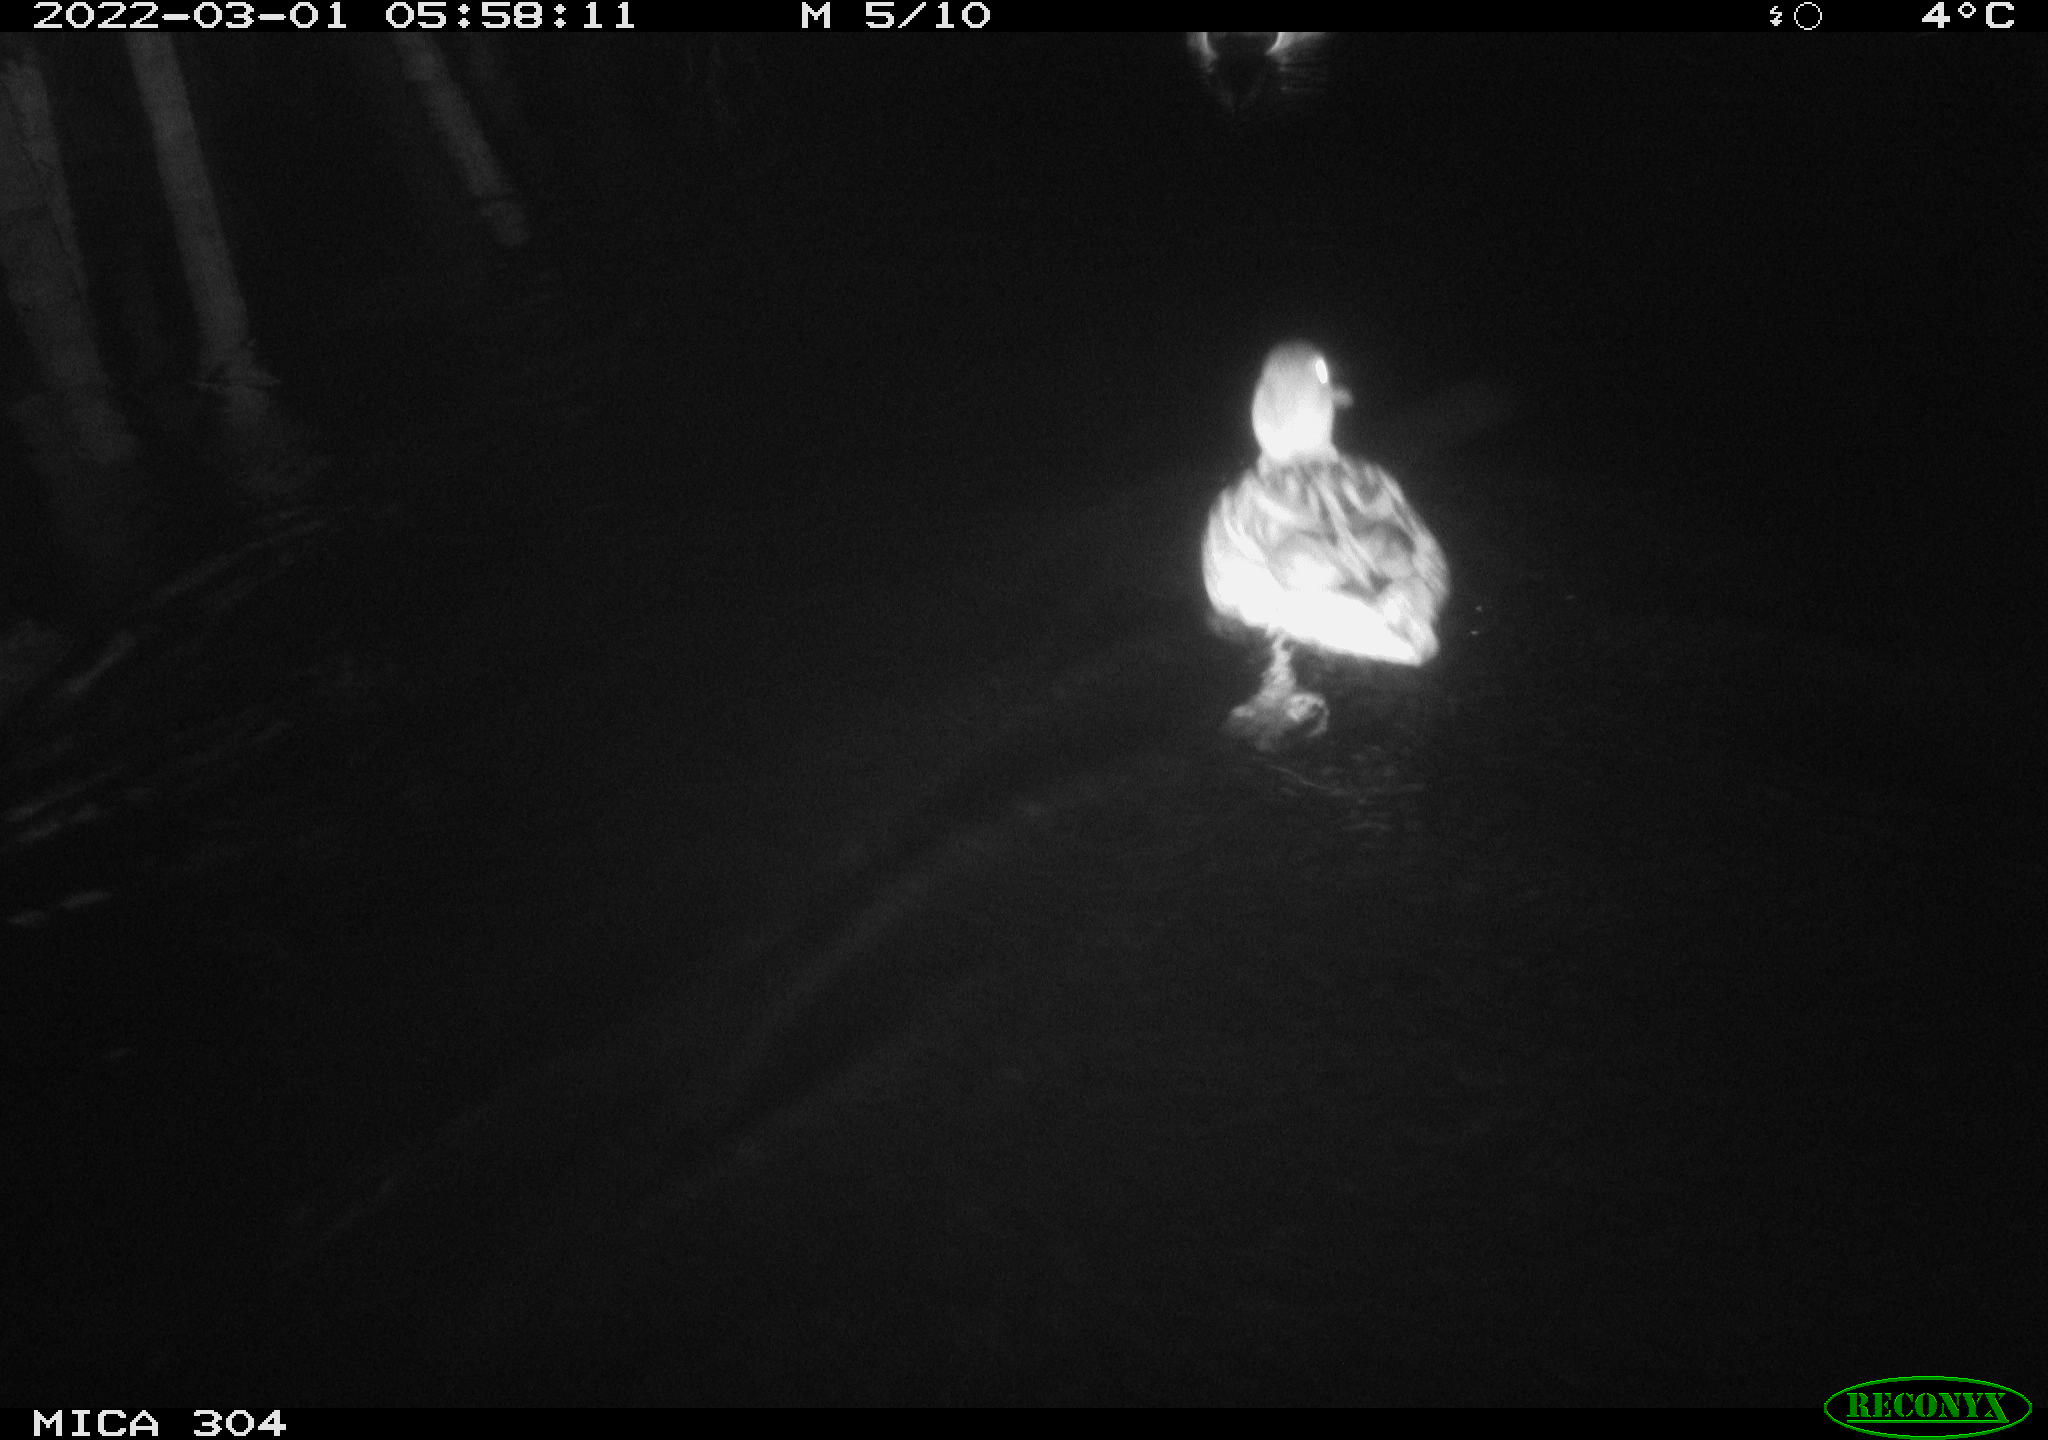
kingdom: Animalia
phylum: Chordata
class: Aves
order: Anseriformes
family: Anatidae
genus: Anas
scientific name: Anas platyrhynchos
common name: Mallard
